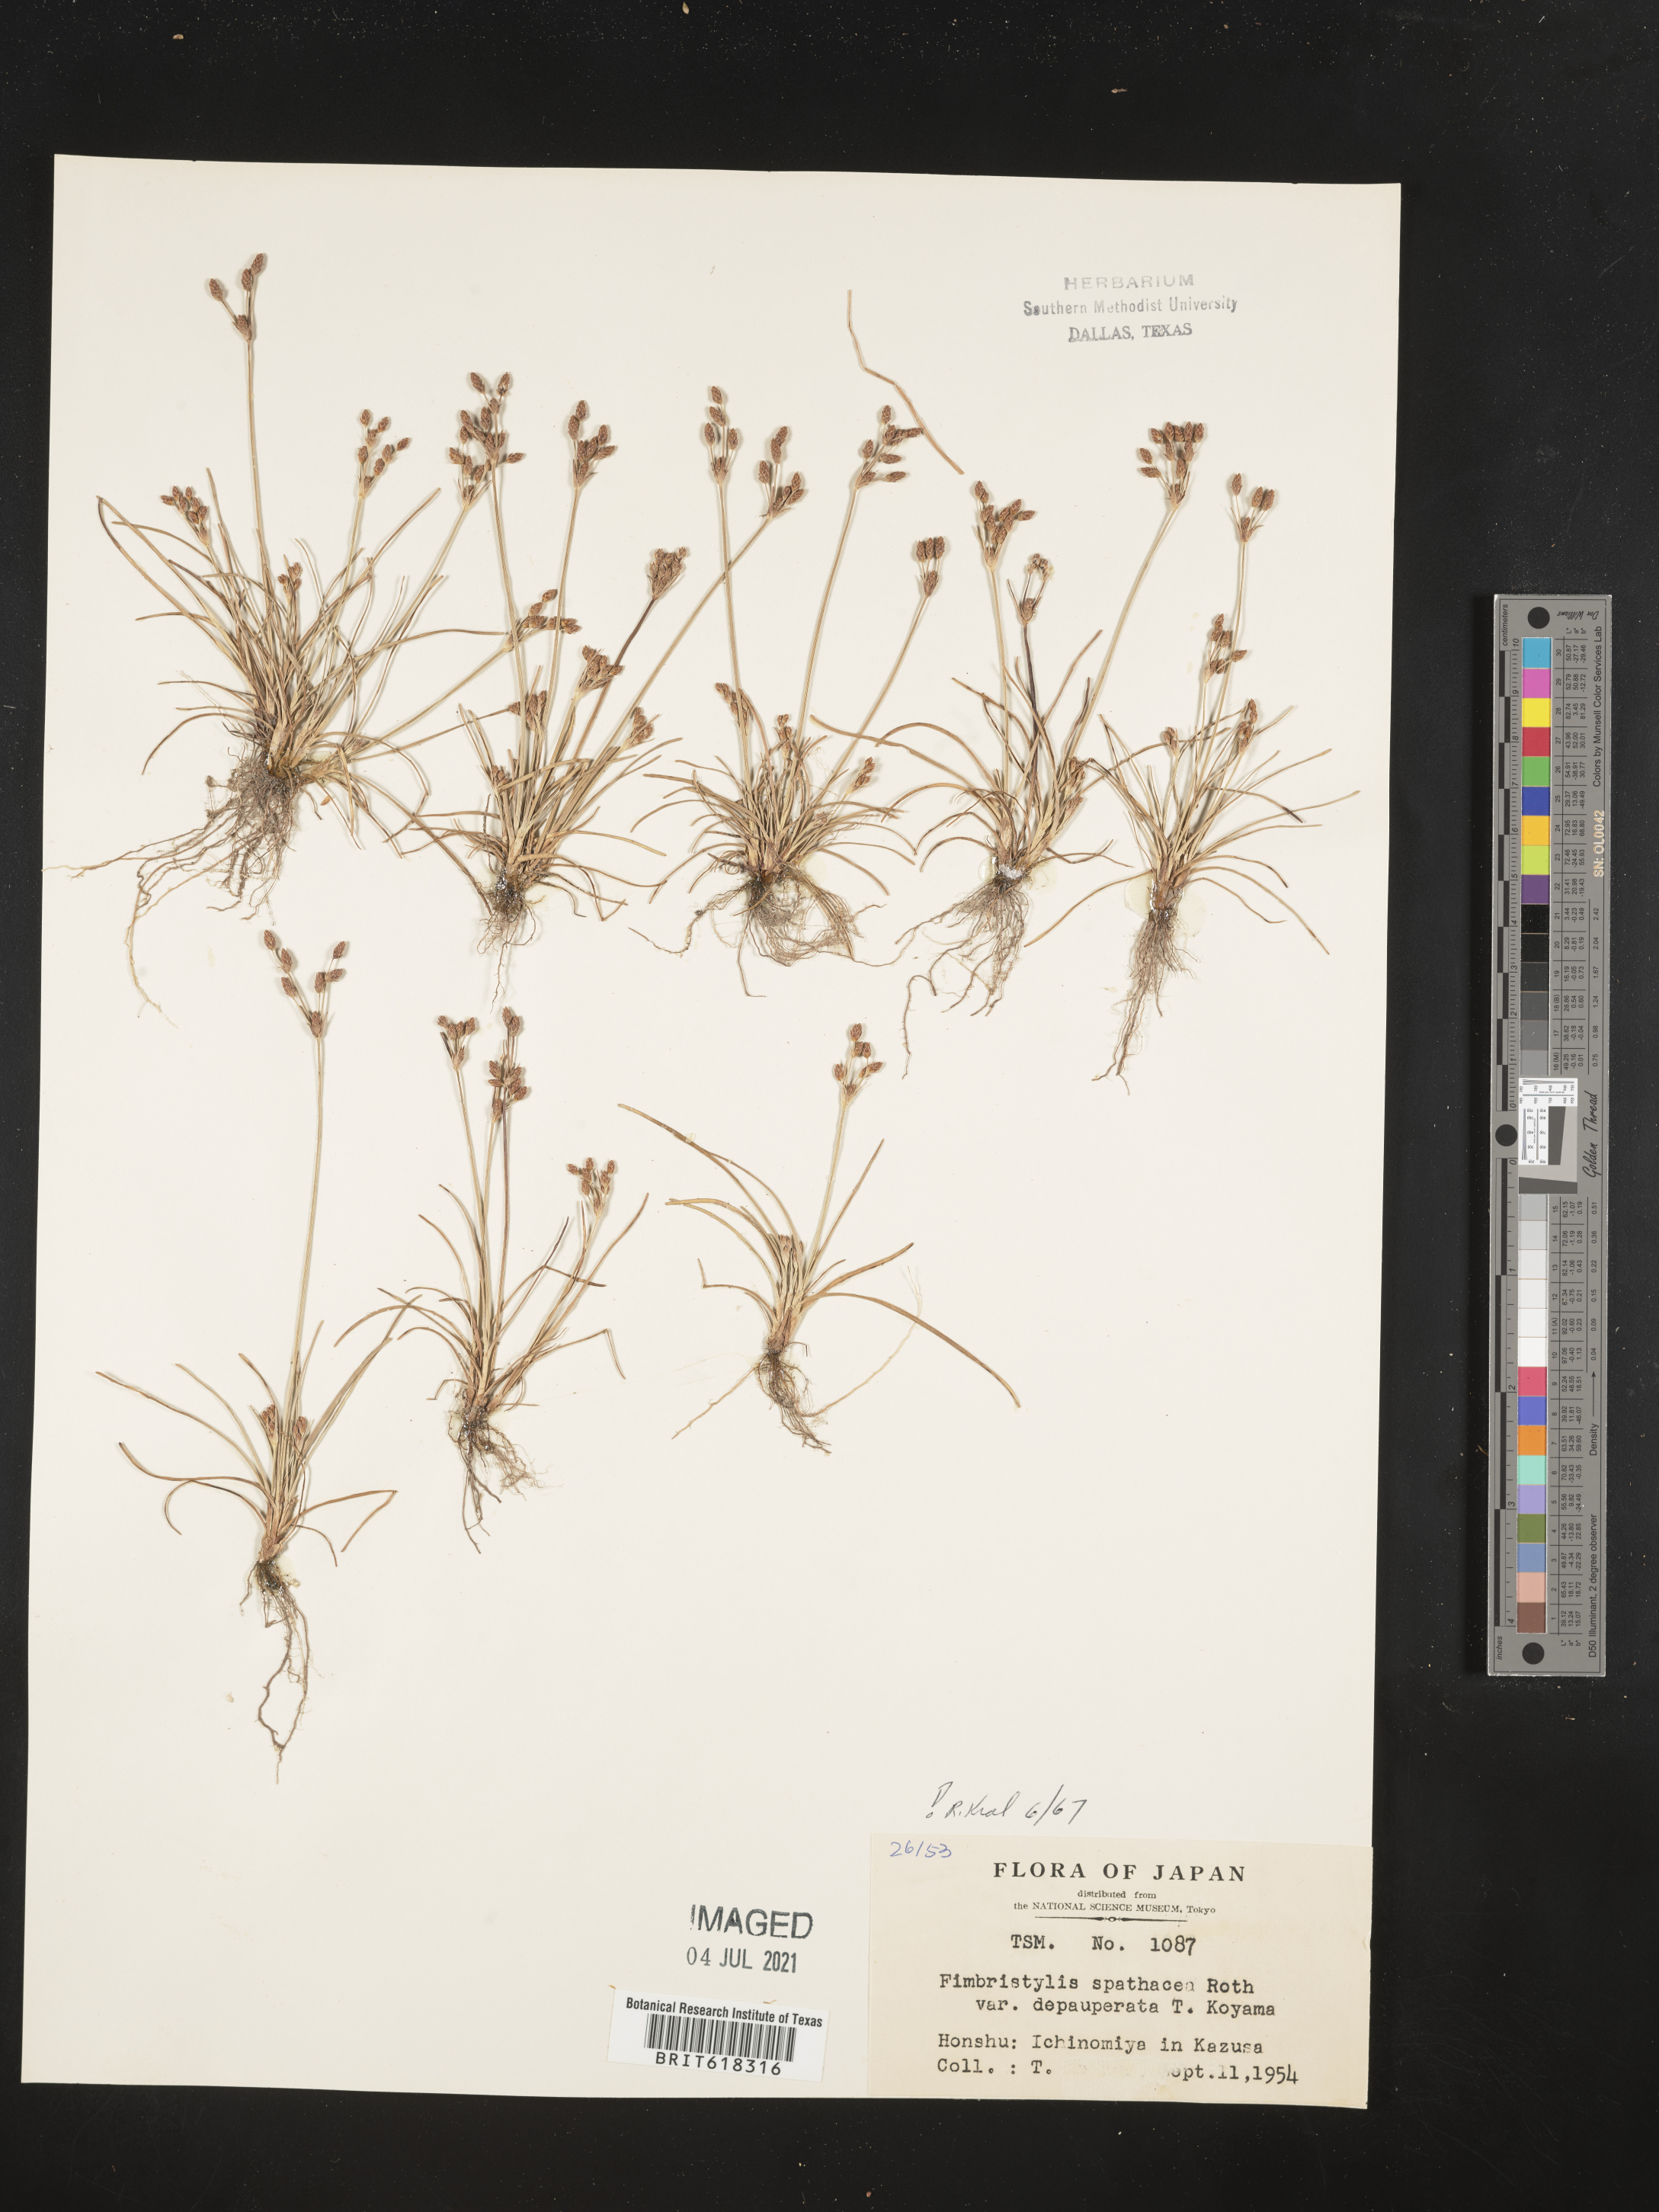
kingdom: Plantae
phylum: Tracheophyta
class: Liliopsida
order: Poales
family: Cyperaceae
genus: Fimbristylis
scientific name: Fimbristylis cymosa
